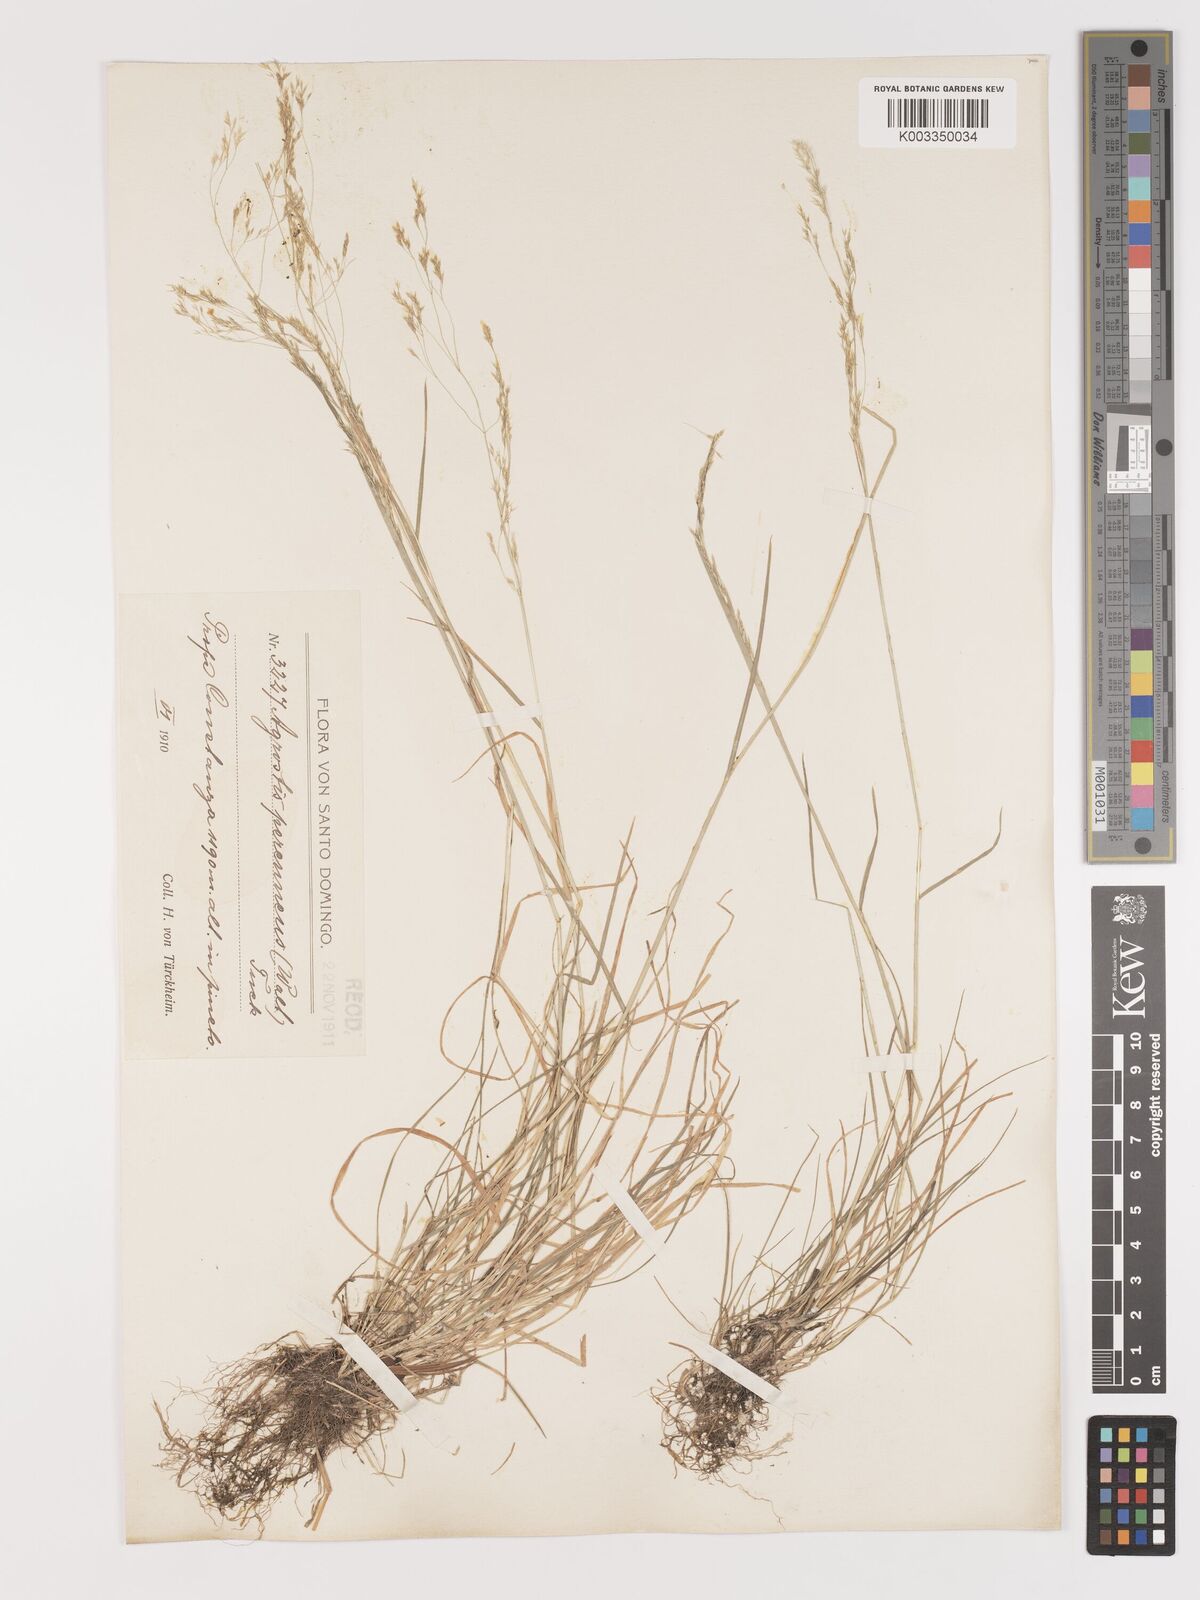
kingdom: Plantae
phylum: Tracheophyta
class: Liliopsida
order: Poales
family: Poaceae
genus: Agrostis
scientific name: Agrostis hyemalis
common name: Small bent
